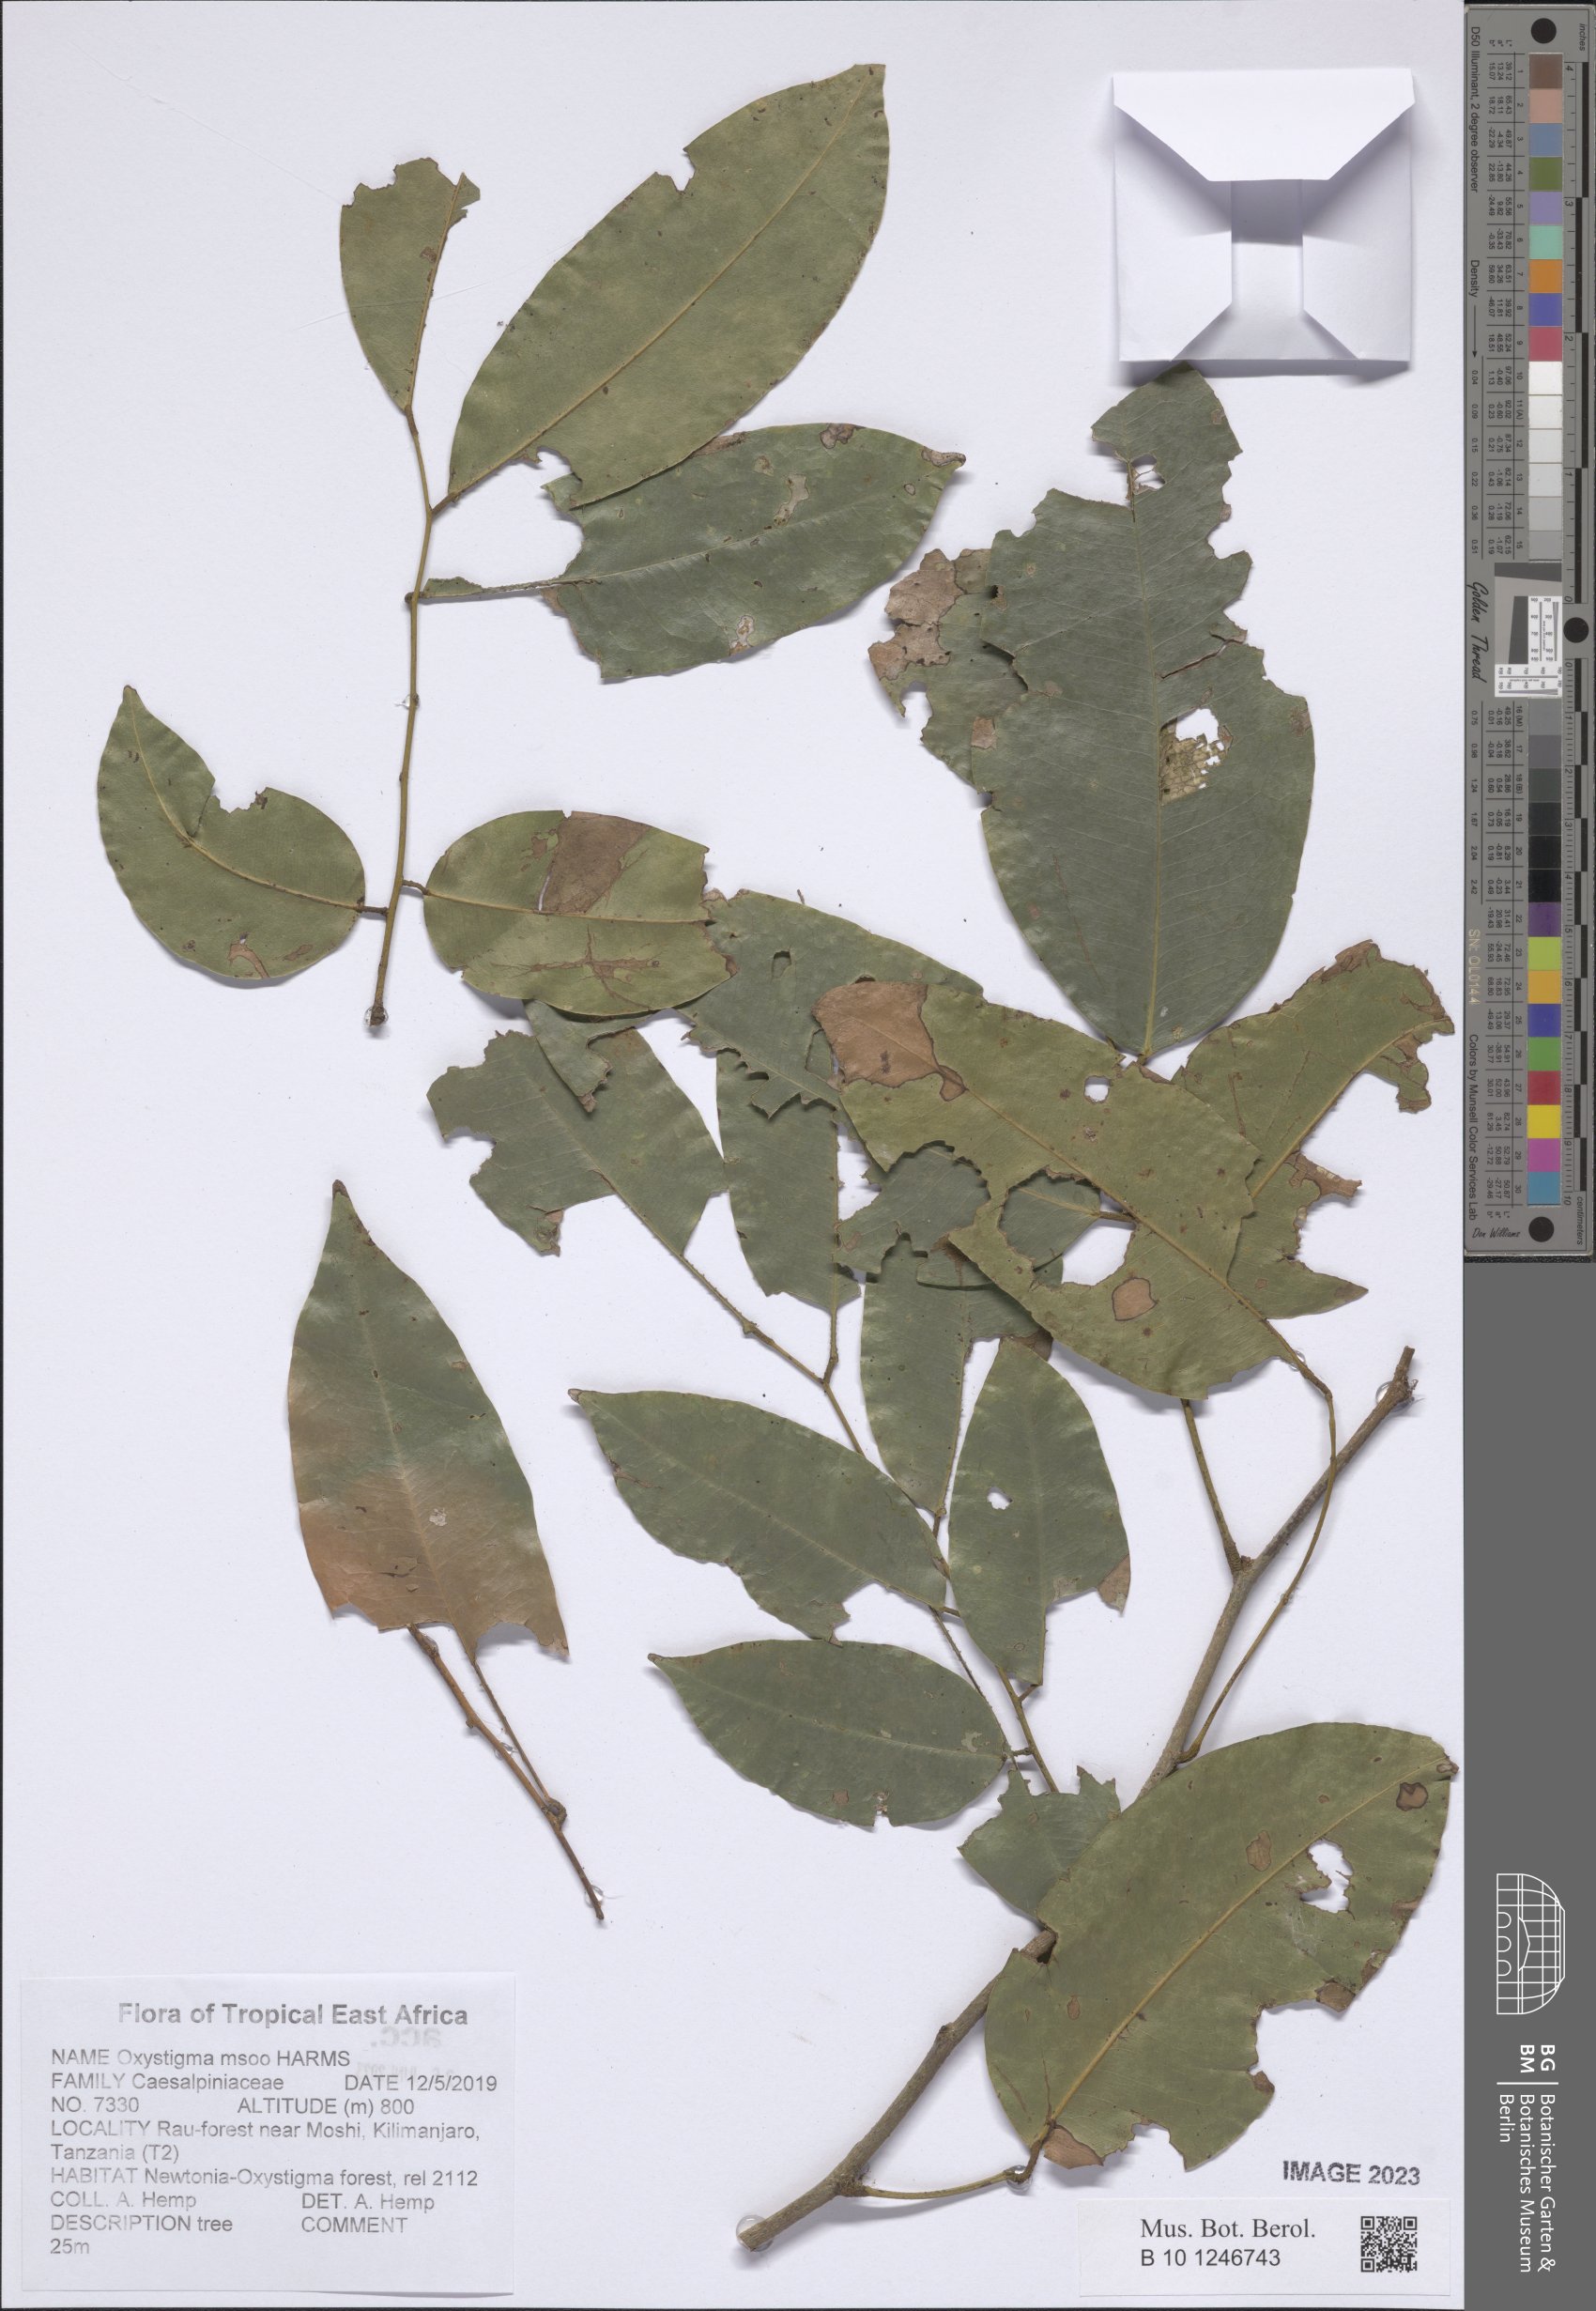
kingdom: Plantae
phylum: Tracheophyta
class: Magnoliopsida
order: Fabales
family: Fabaceae
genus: Prioria
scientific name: Prioria msoo
